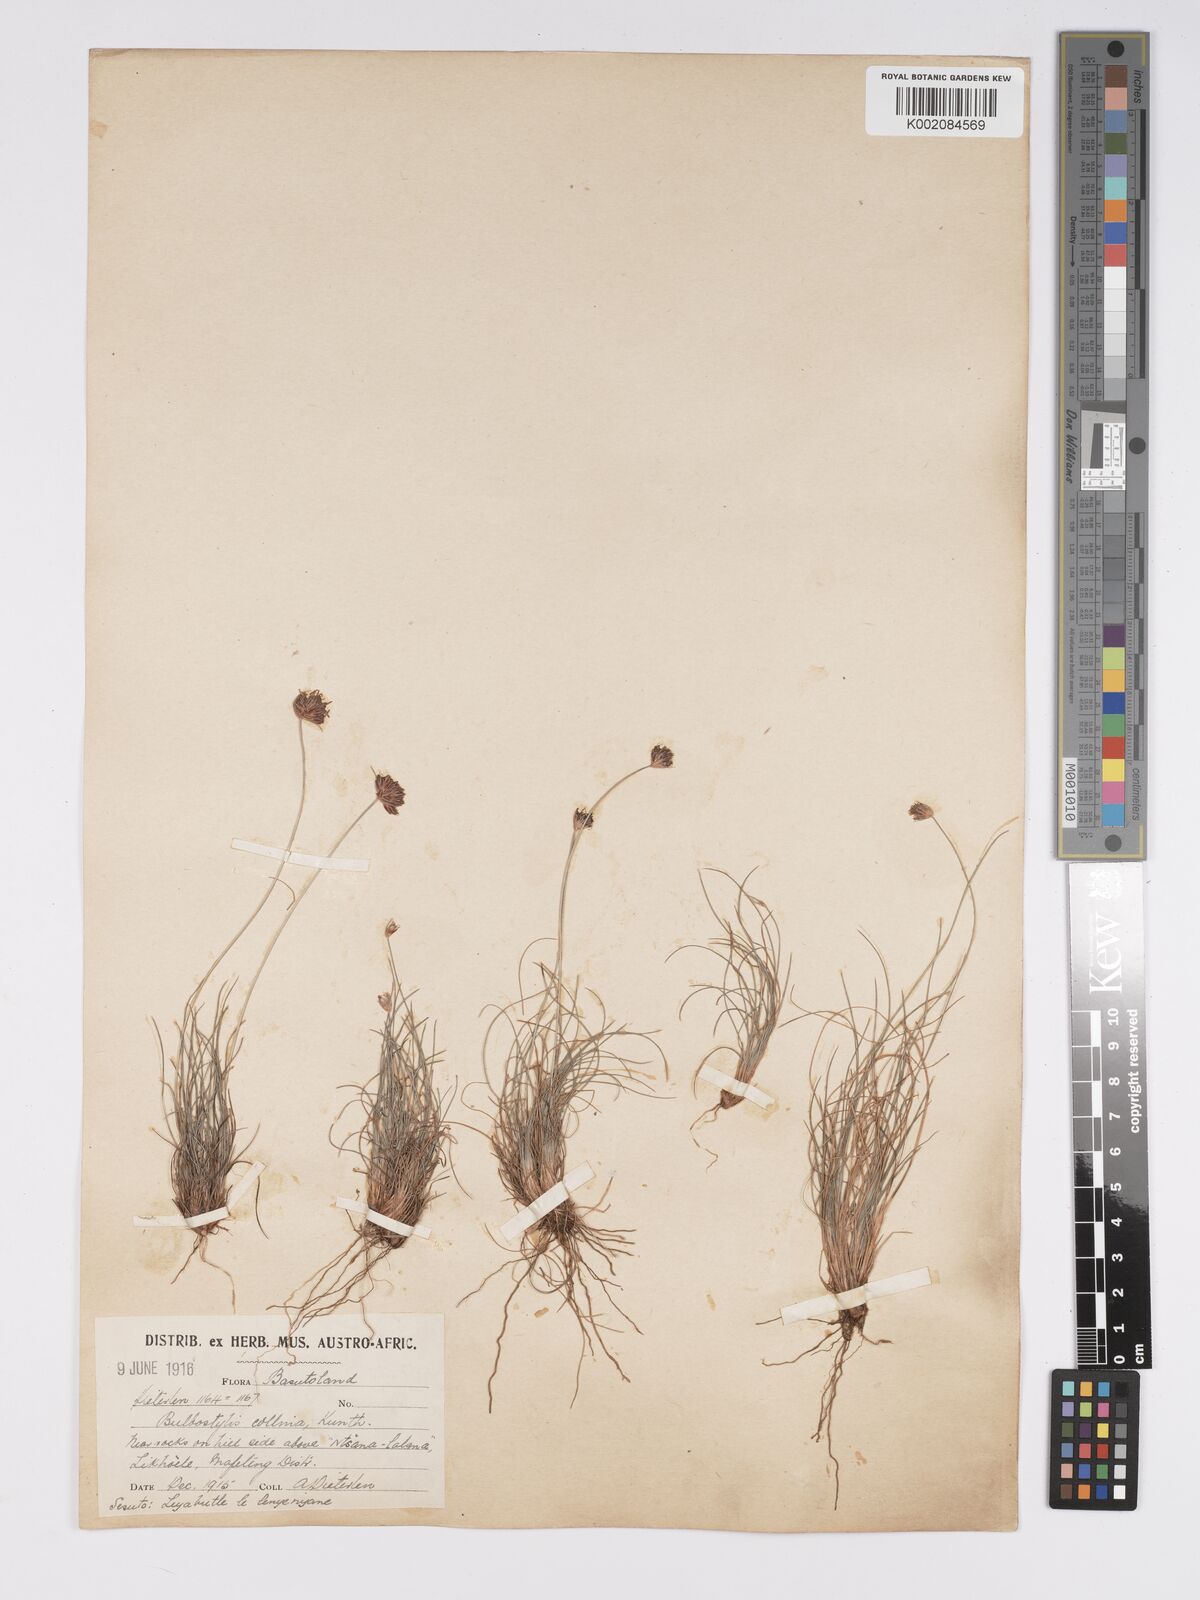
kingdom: Plantae
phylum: Tracheophyta
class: Liliopsida
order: Poales
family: Cyperaceae
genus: Bulbostylis
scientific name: Bulbostylis contexta
